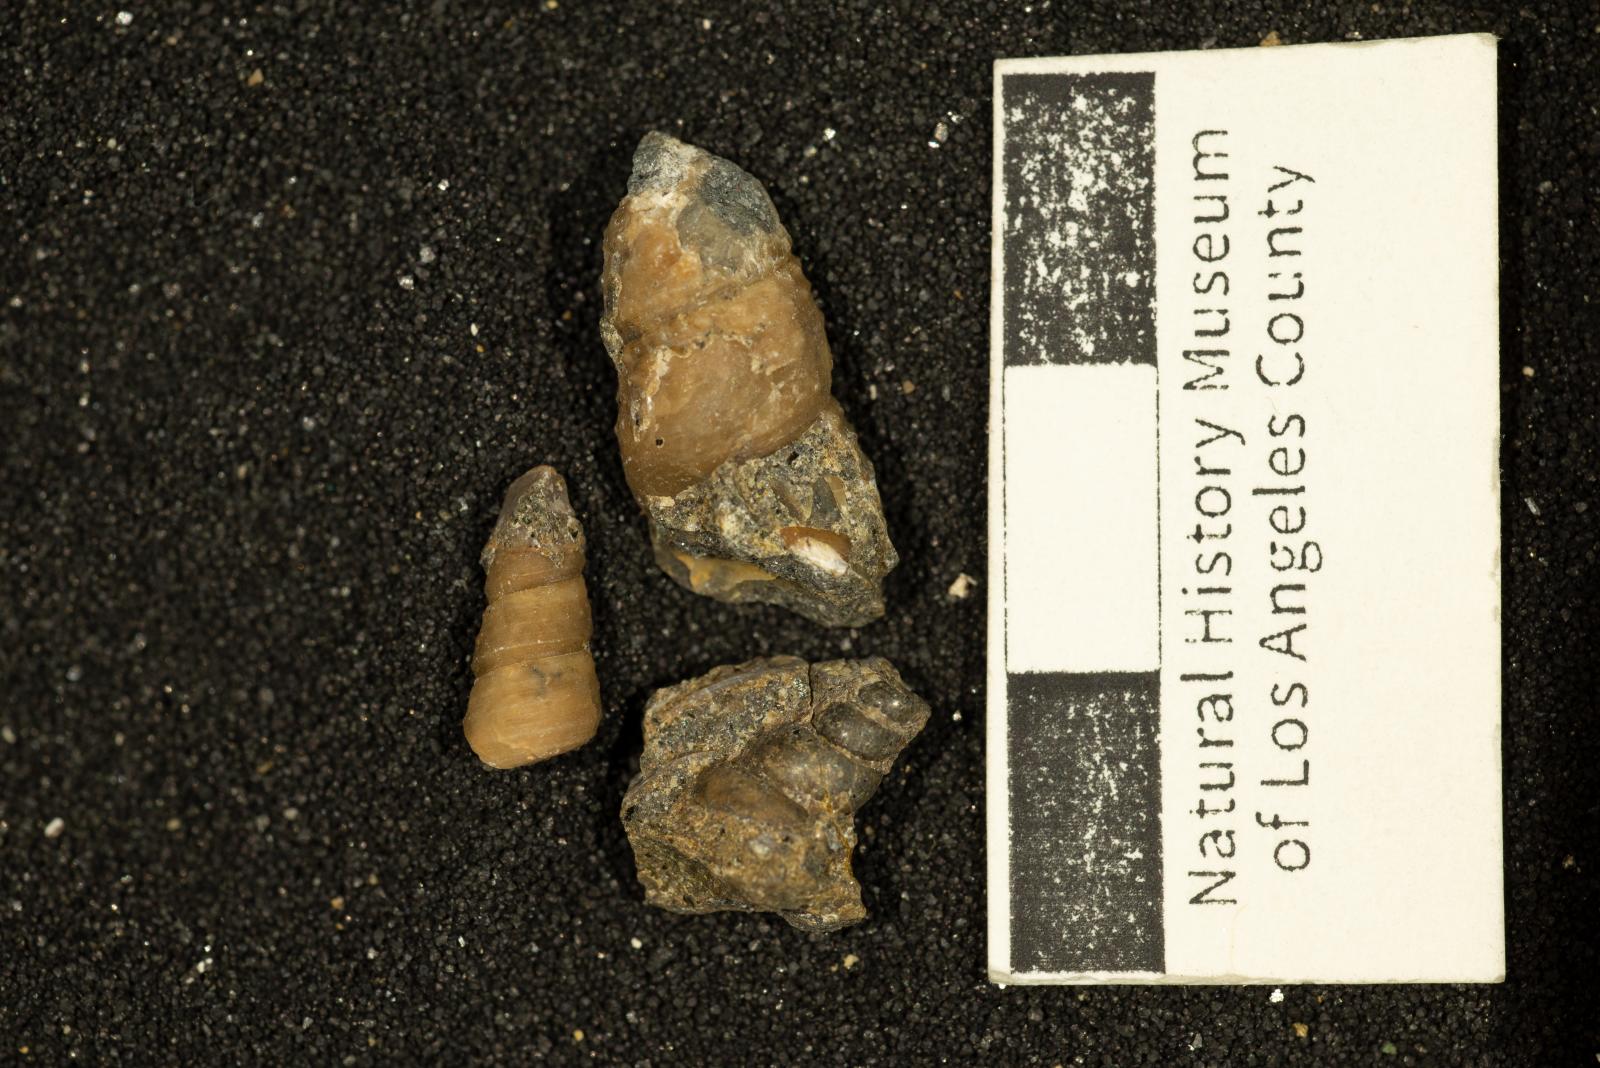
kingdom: Animalia
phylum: Mollusca
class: Gastropoda
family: Turritellidae
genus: Turritella
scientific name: Turritella hearni
